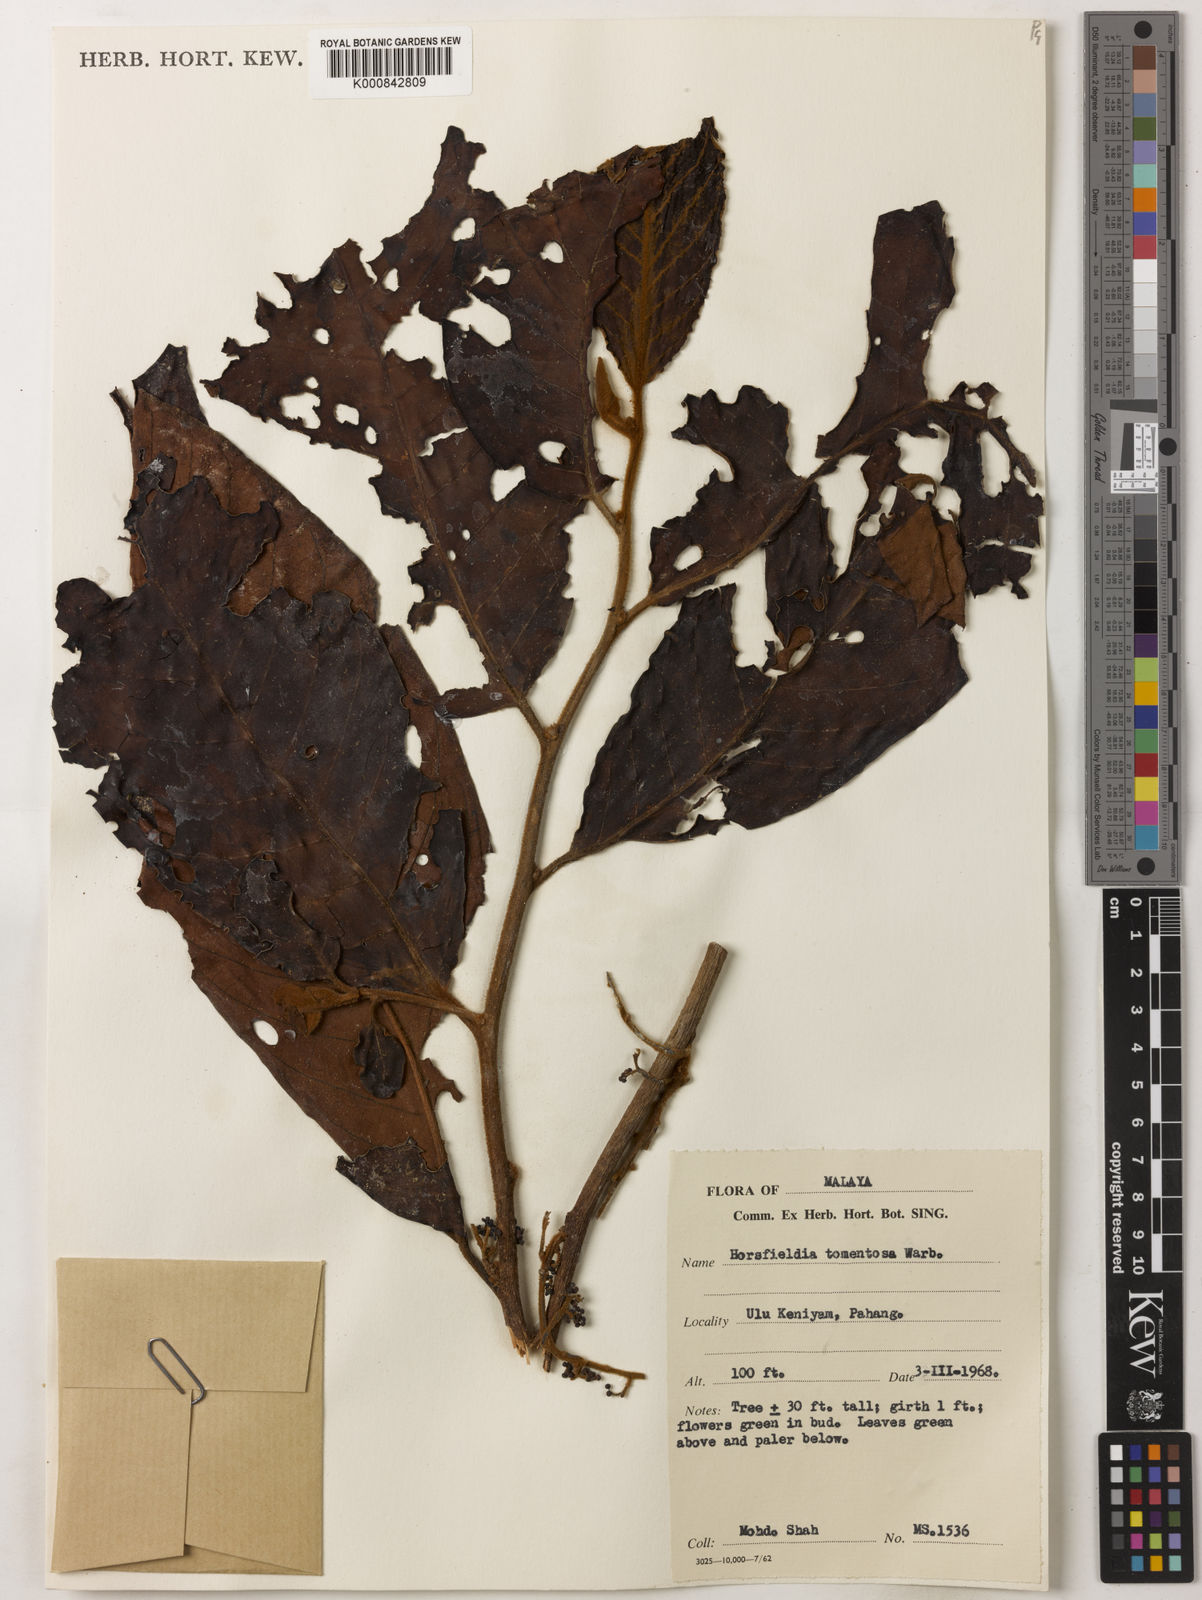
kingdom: Plantae
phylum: Tracheophyta
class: Magnoliopsida
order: Magnoliales
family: Myristicaceae
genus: Horsfieldia
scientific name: Horsfieldia tomentosa
